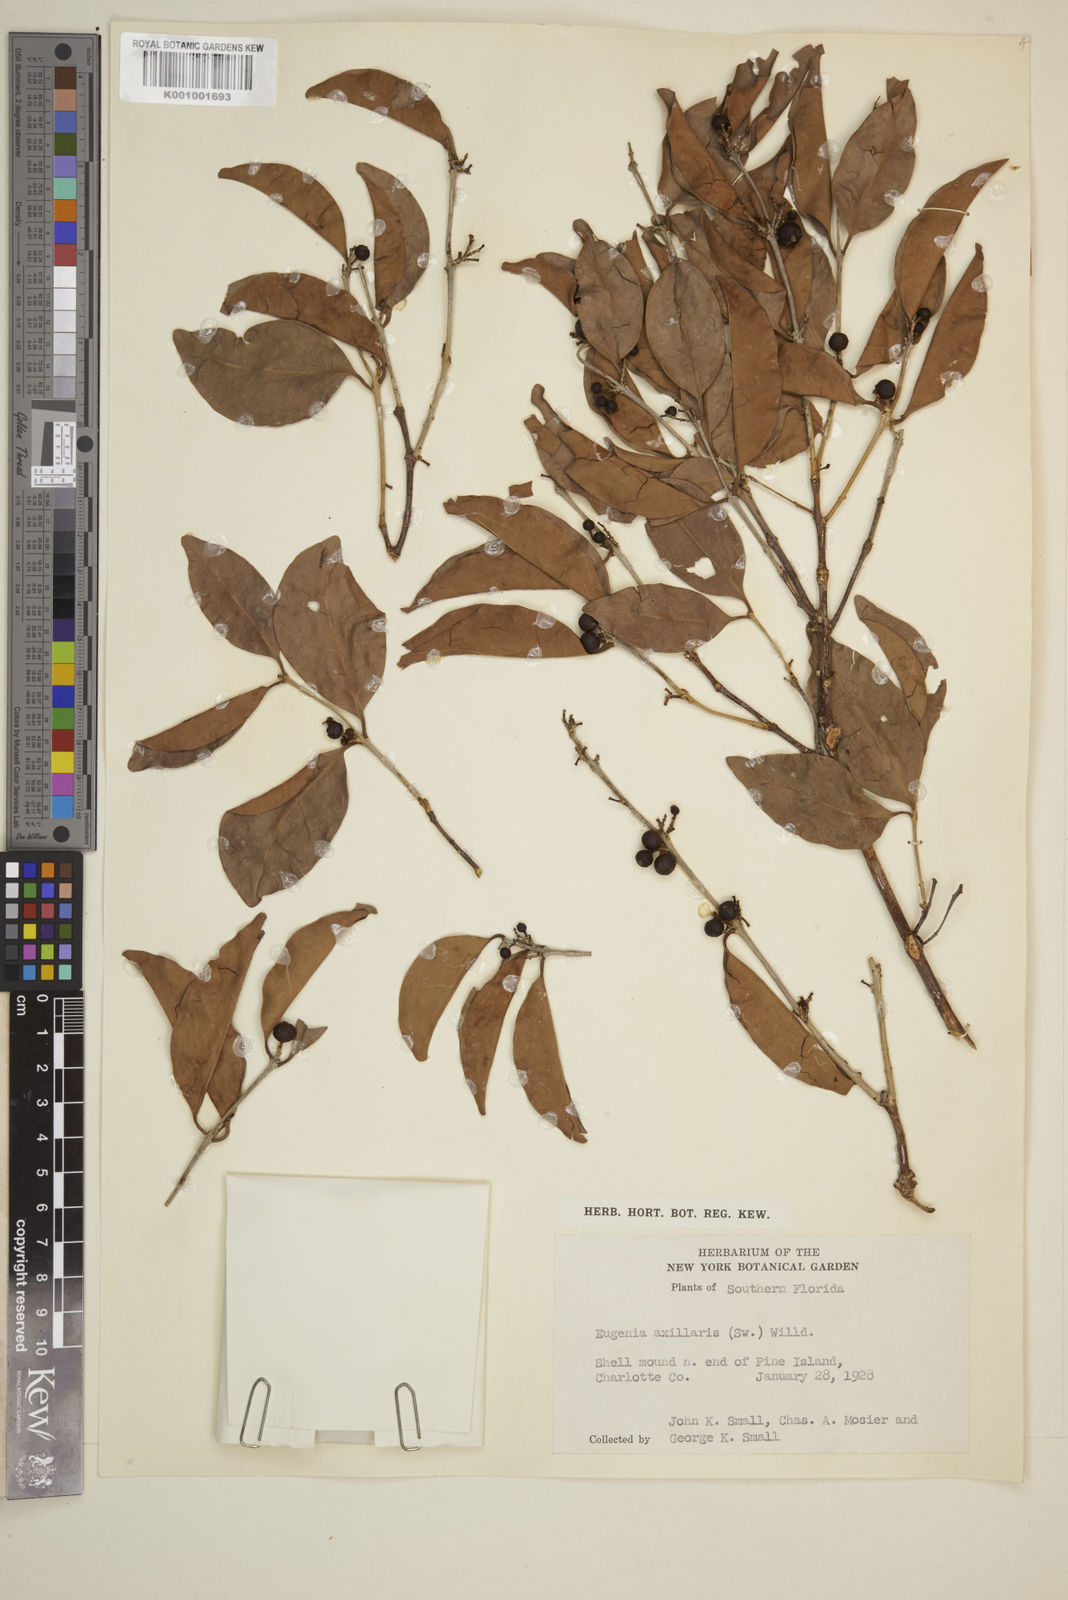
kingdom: Plantae
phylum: Tracheophyta
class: Magnoliopsida
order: Myrtales
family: Myrtaceae
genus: Eugenia
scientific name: Eugenia axillaris
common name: Choaky berry
